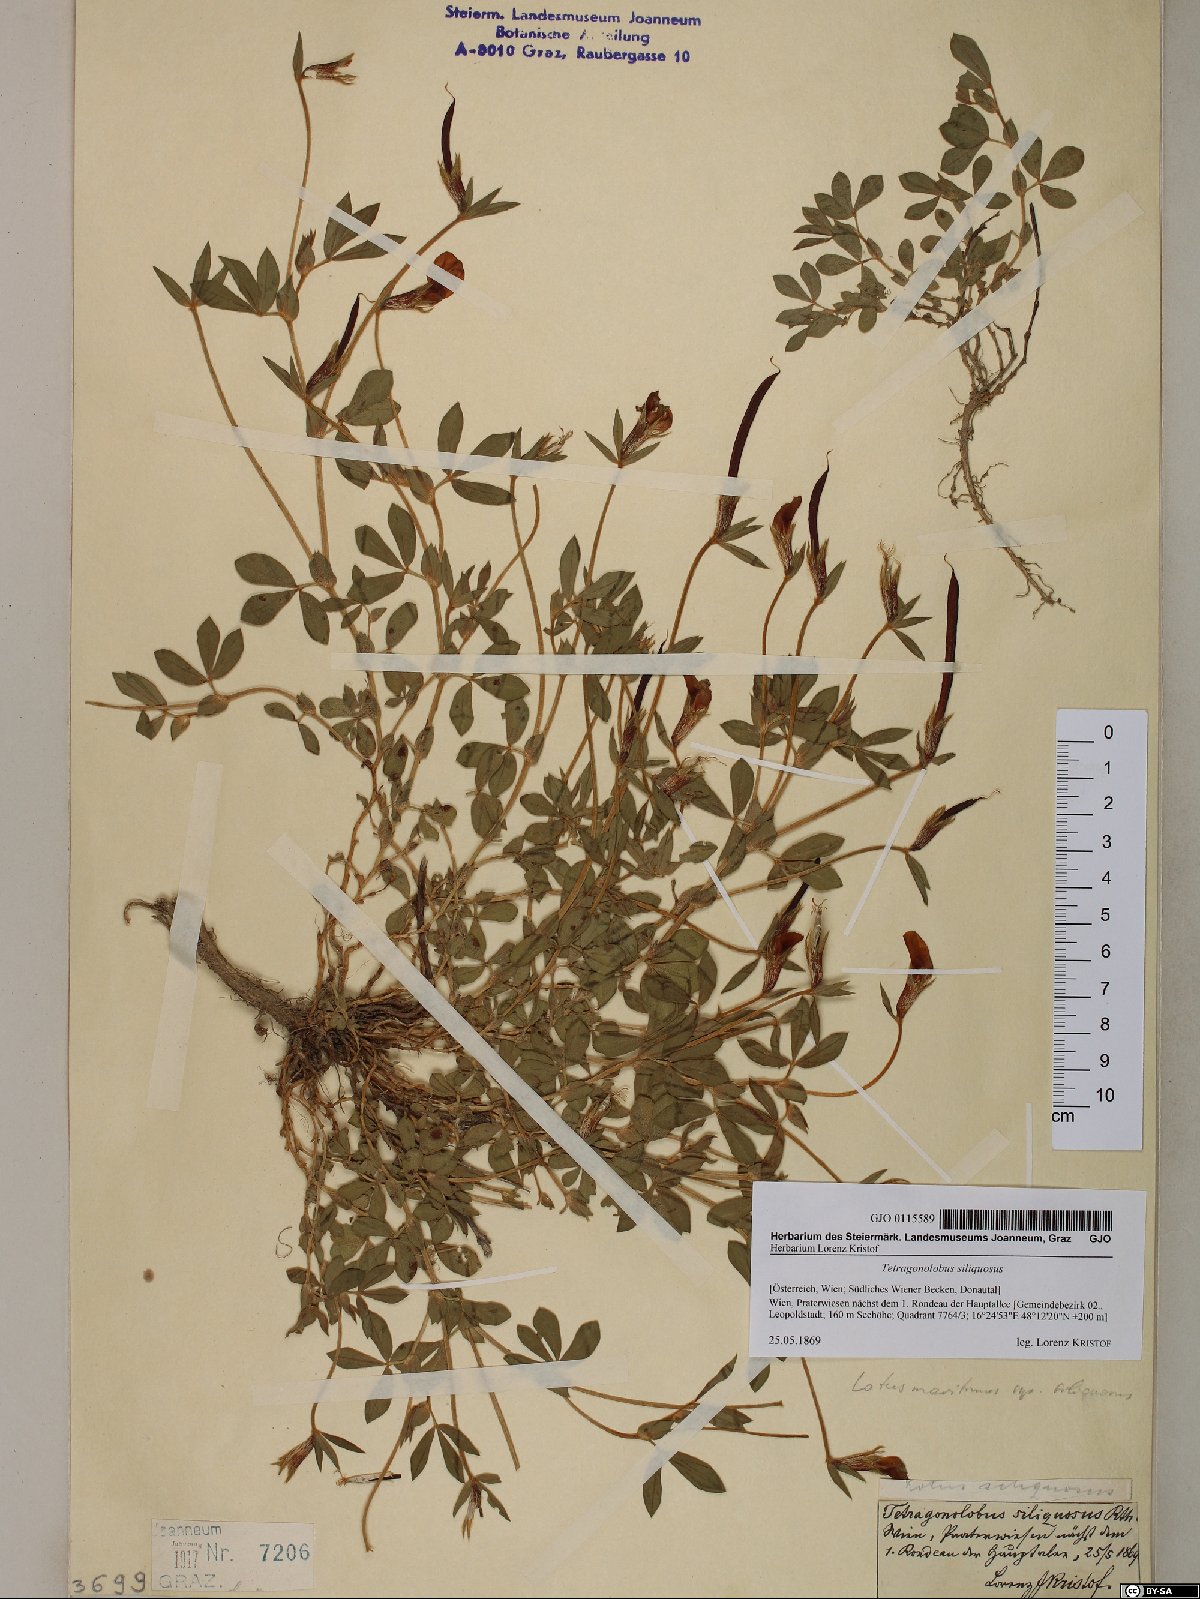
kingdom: Plantae
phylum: Tracheophyta
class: Magnoliopsida
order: Fabales
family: Fabaceae
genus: Lathyrus
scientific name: Lathyrus inconspicuus
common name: Inconspicuous pea
